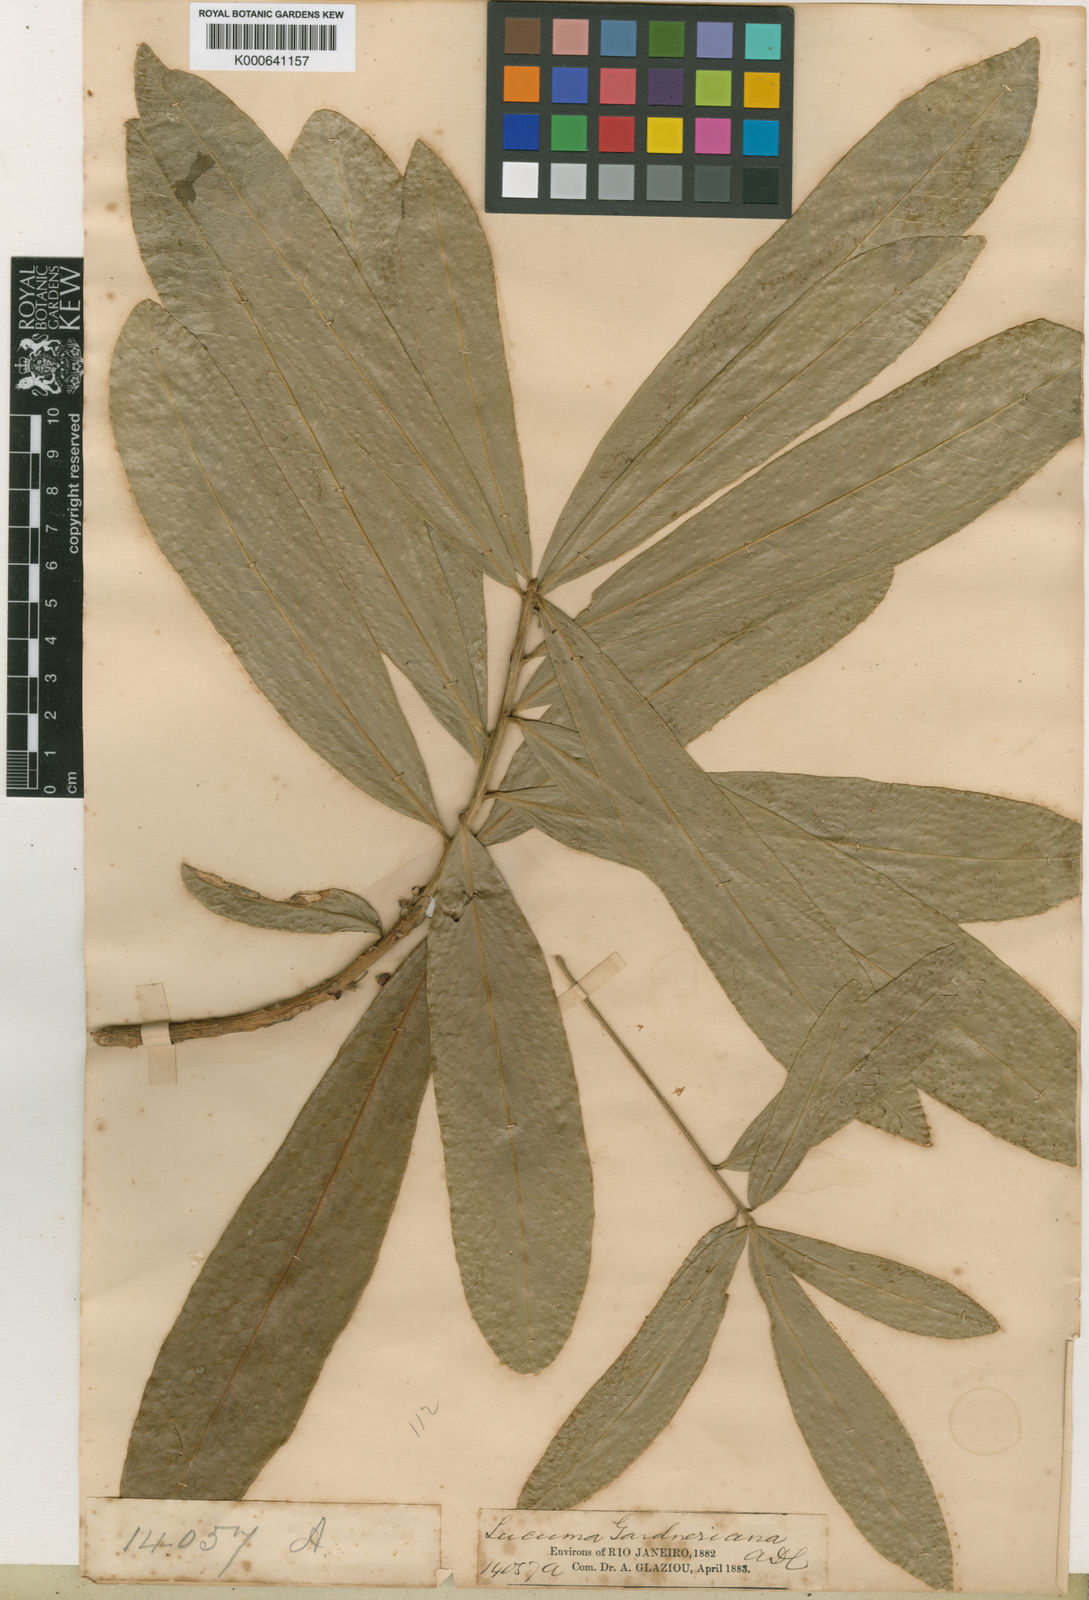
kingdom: Plantae
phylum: Tracheophyta
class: Magnoliopsida
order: Ericales
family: Sapotaceae
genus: Pouteria
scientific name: Pouteria gardneriana
